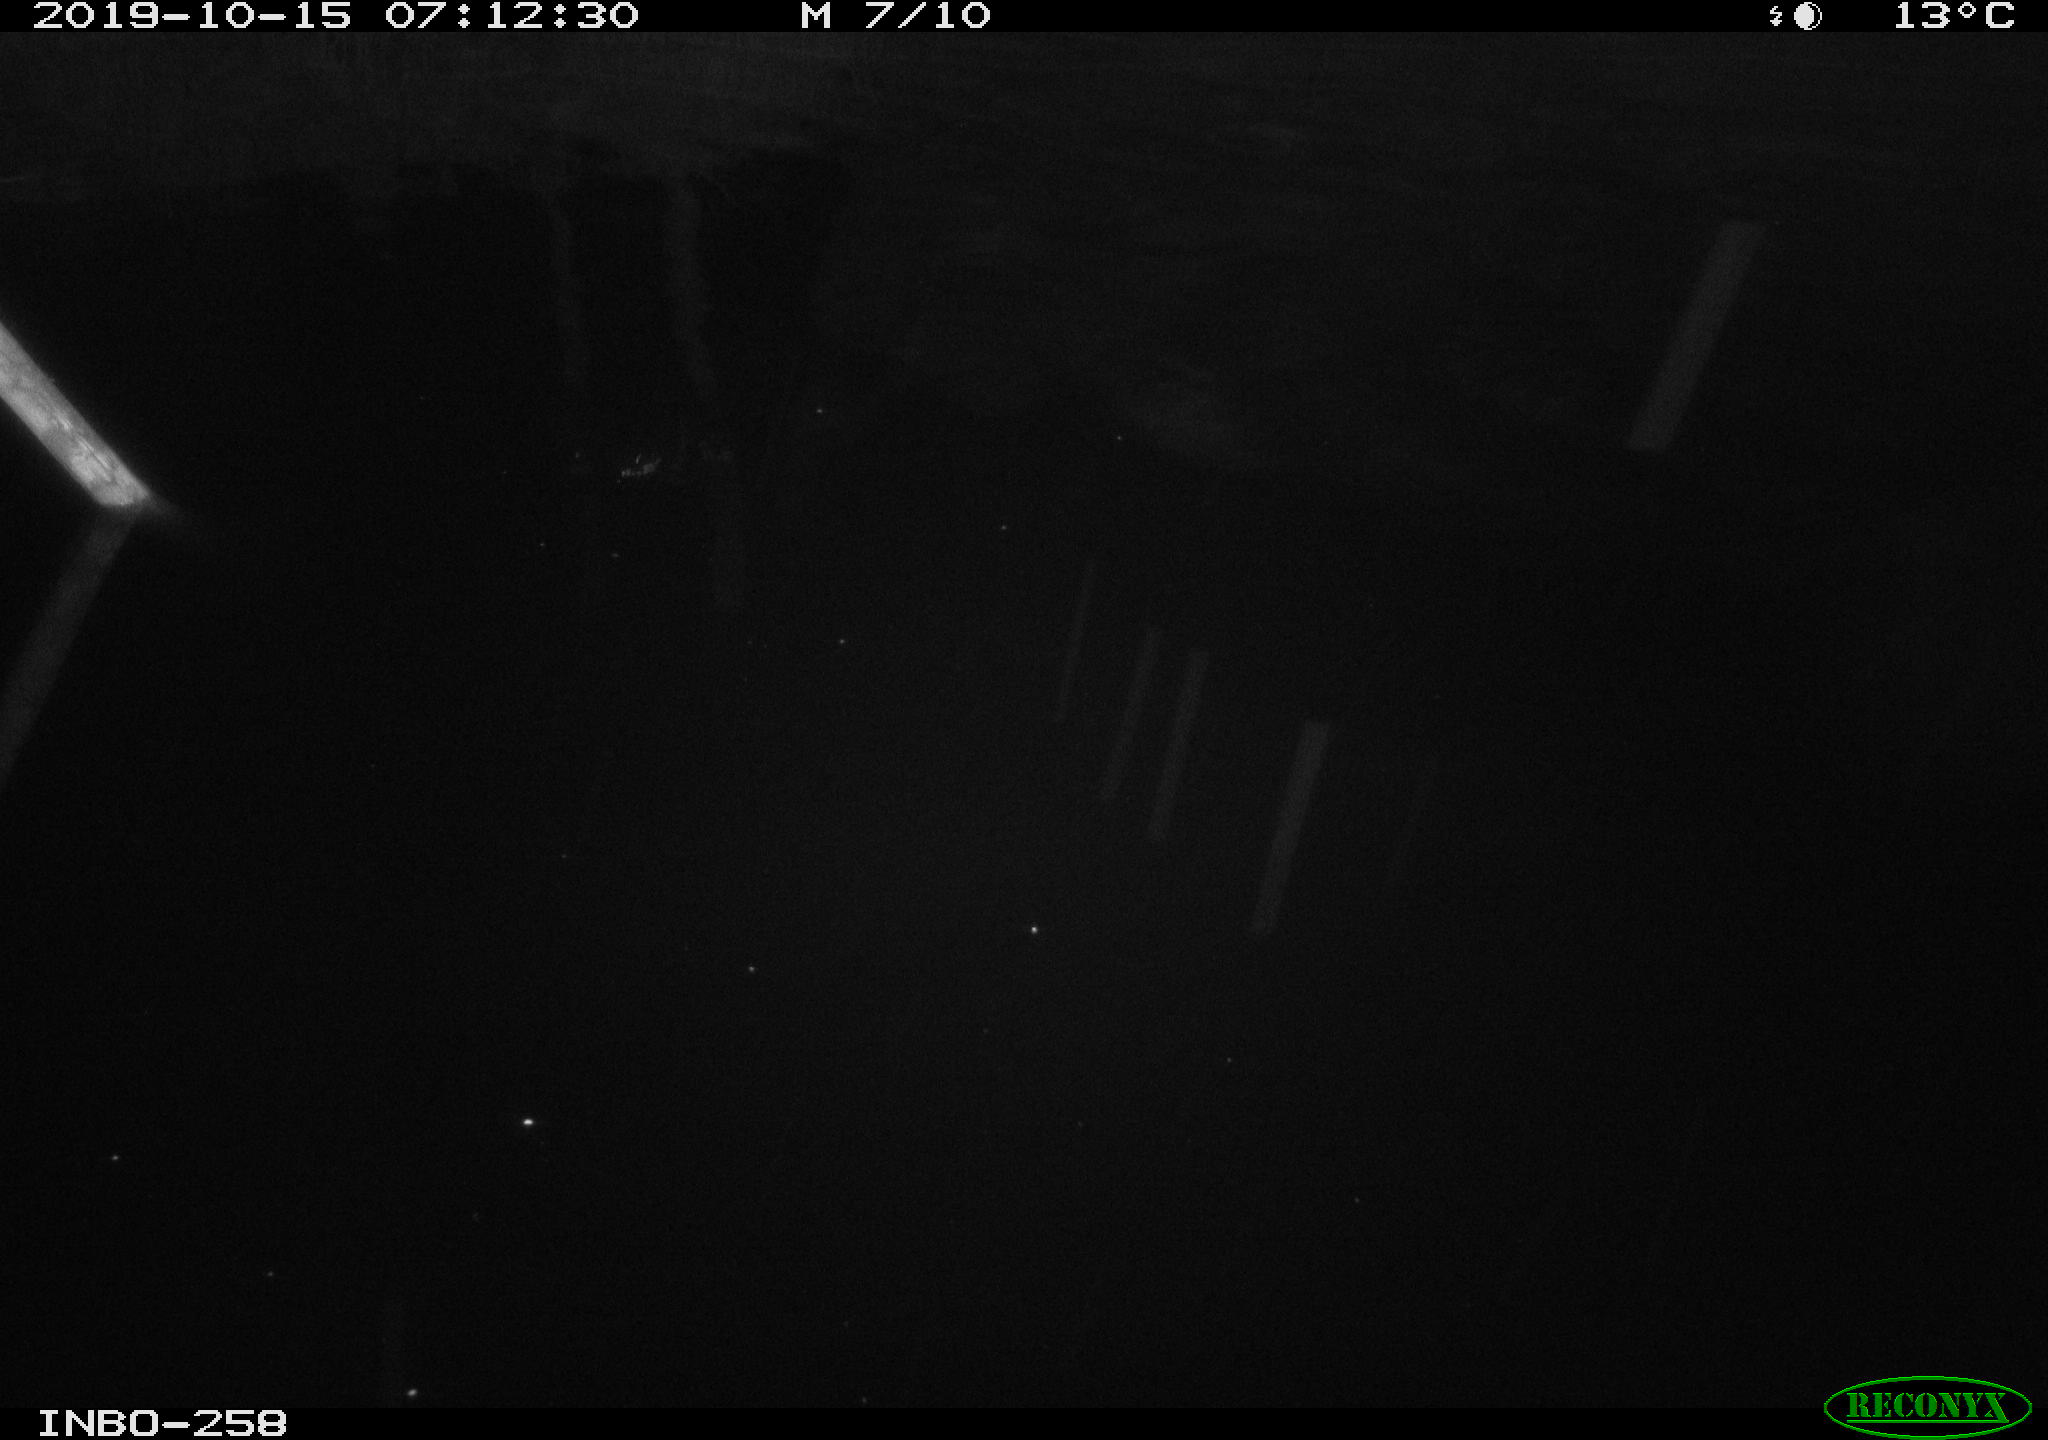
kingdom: Animalia
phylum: Chordata
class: Aves
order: Anseriformes
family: Anatidae
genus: Anas
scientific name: Anas platyrhynchos
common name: Mallard
